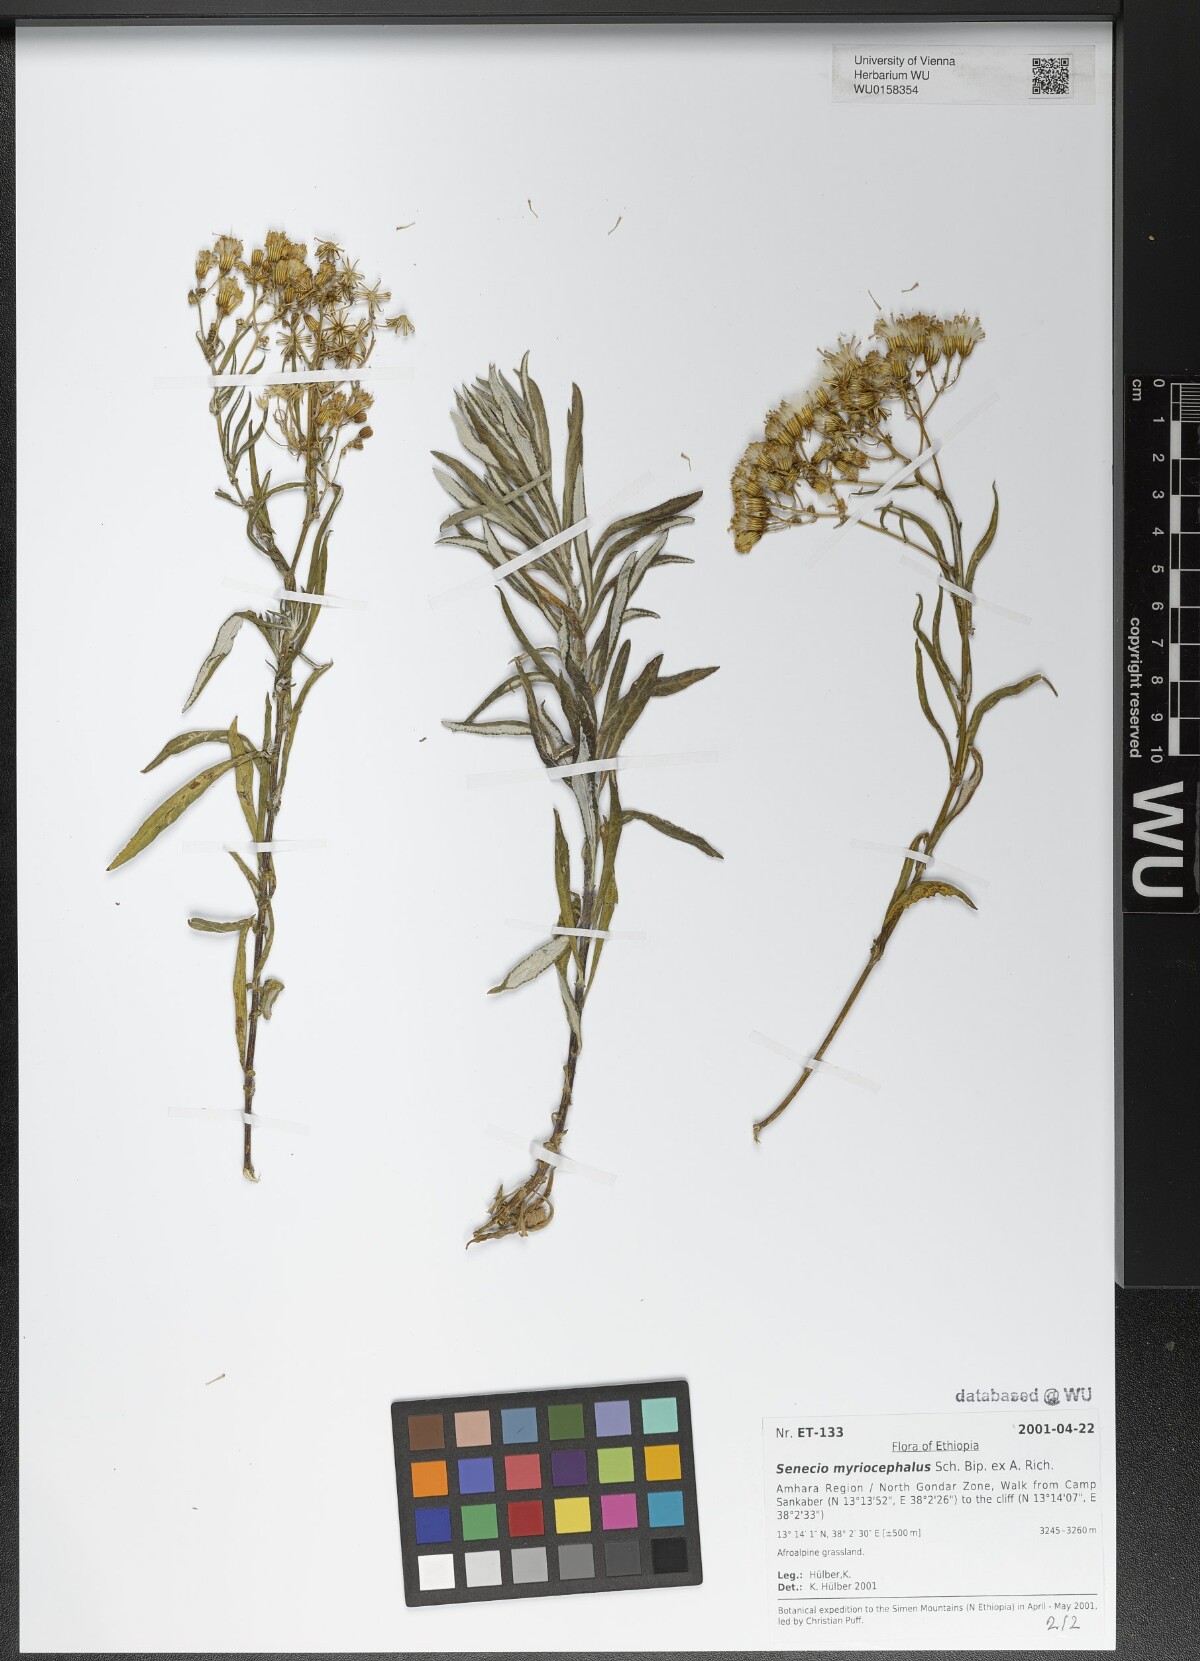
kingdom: Plantae
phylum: Tracheophyta
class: Magnoliopsida
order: Asterales
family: Asteraceae
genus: Senecio
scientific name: Senecio myriocephalus
